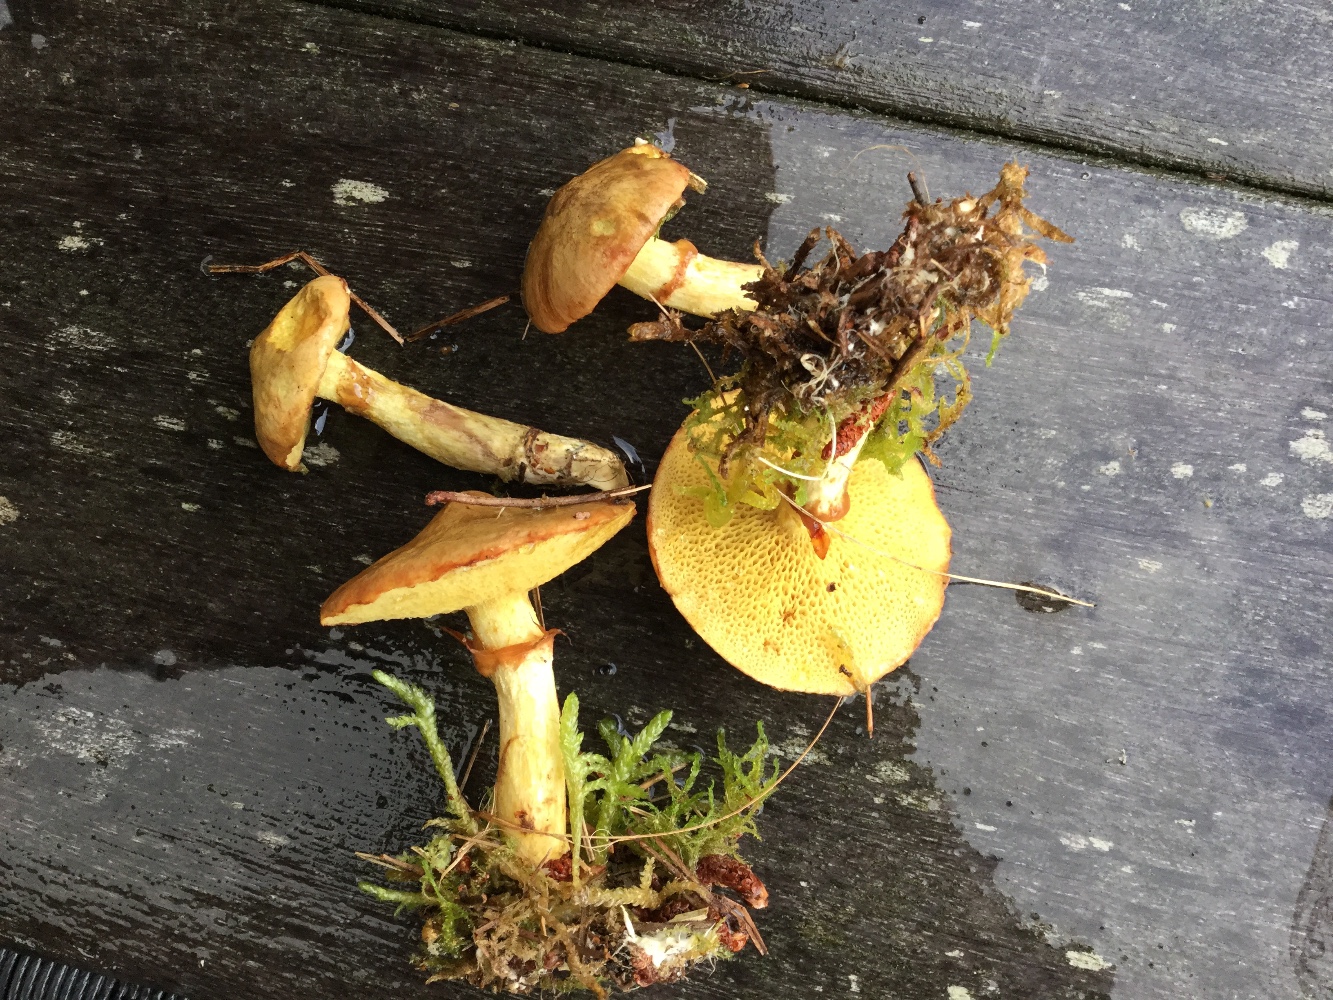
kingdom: Fungi
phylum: Basidiomycota
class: Agaricomycetes
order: Boletales
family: Suillaceae
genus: Suillus
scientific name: Suillus flavidus
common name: mose-slimrørhat
